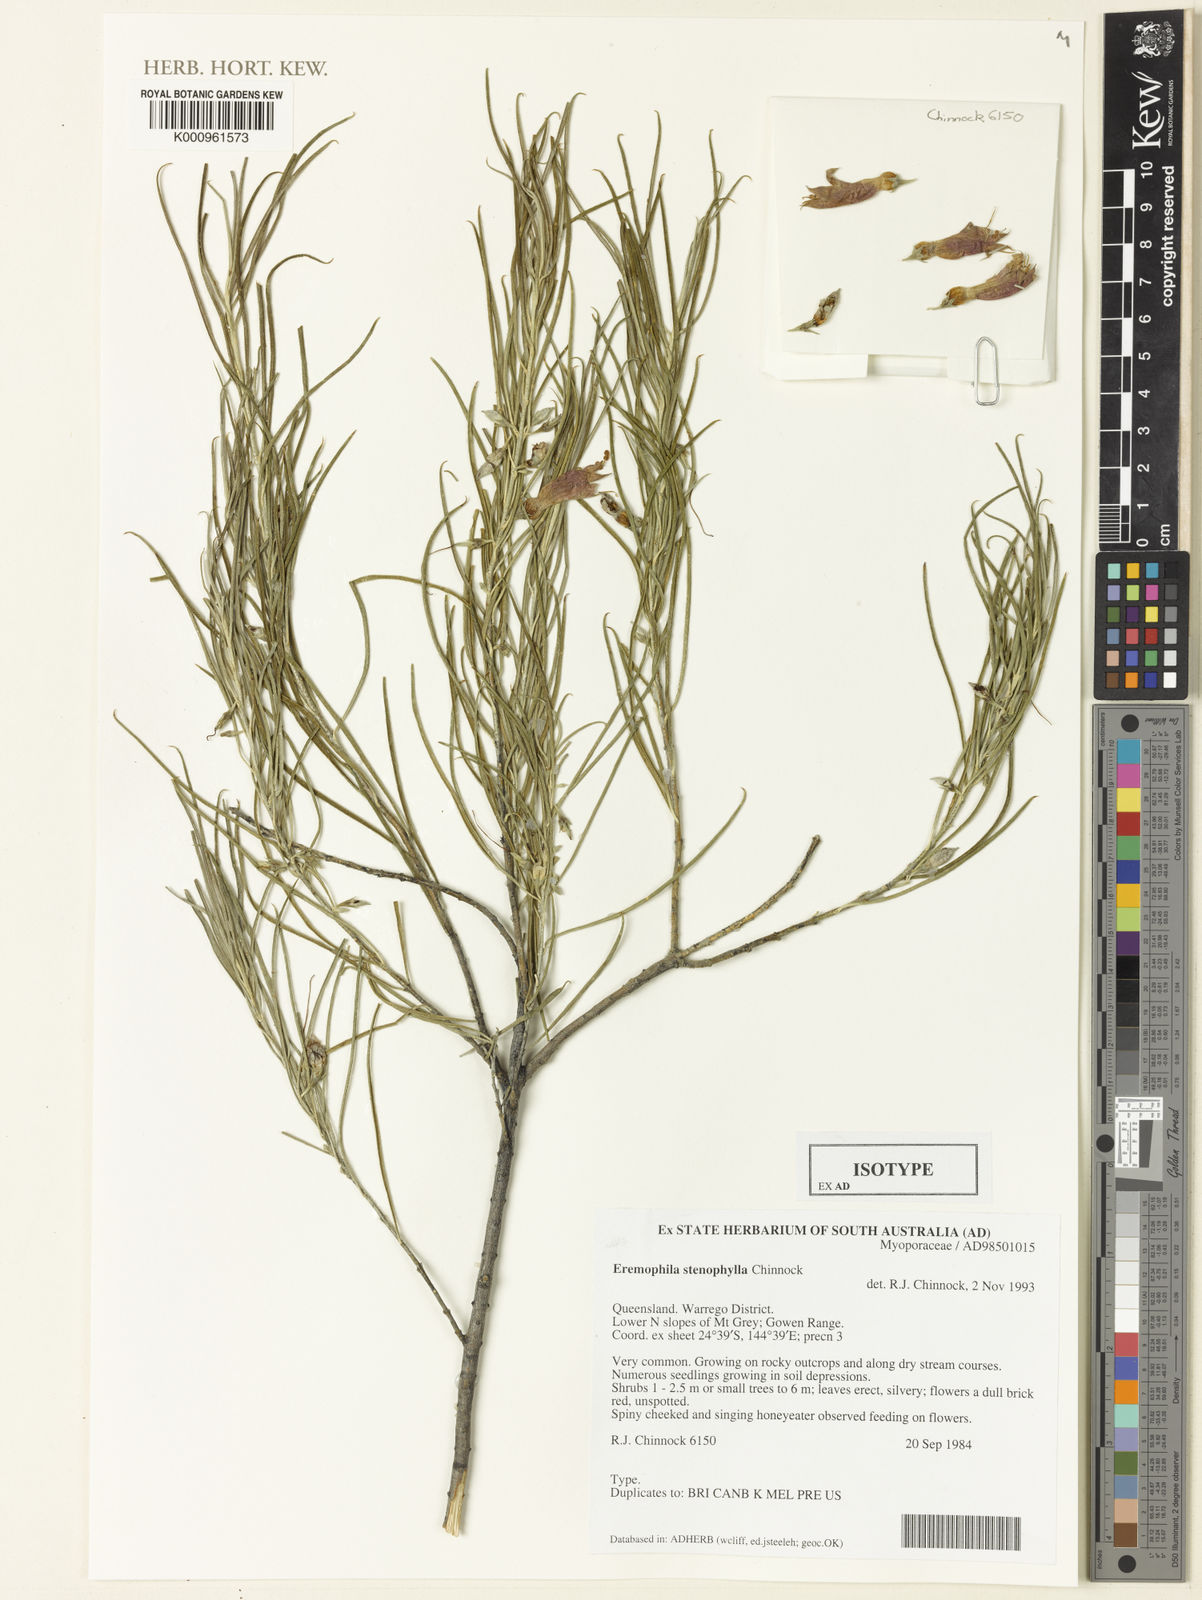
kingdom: Plantae
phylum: Tracheophyta
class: Magnoliopsida
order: Lamiales
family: Scrophulariaceae
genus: Eremophila
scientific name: Eremophila stenophylla
